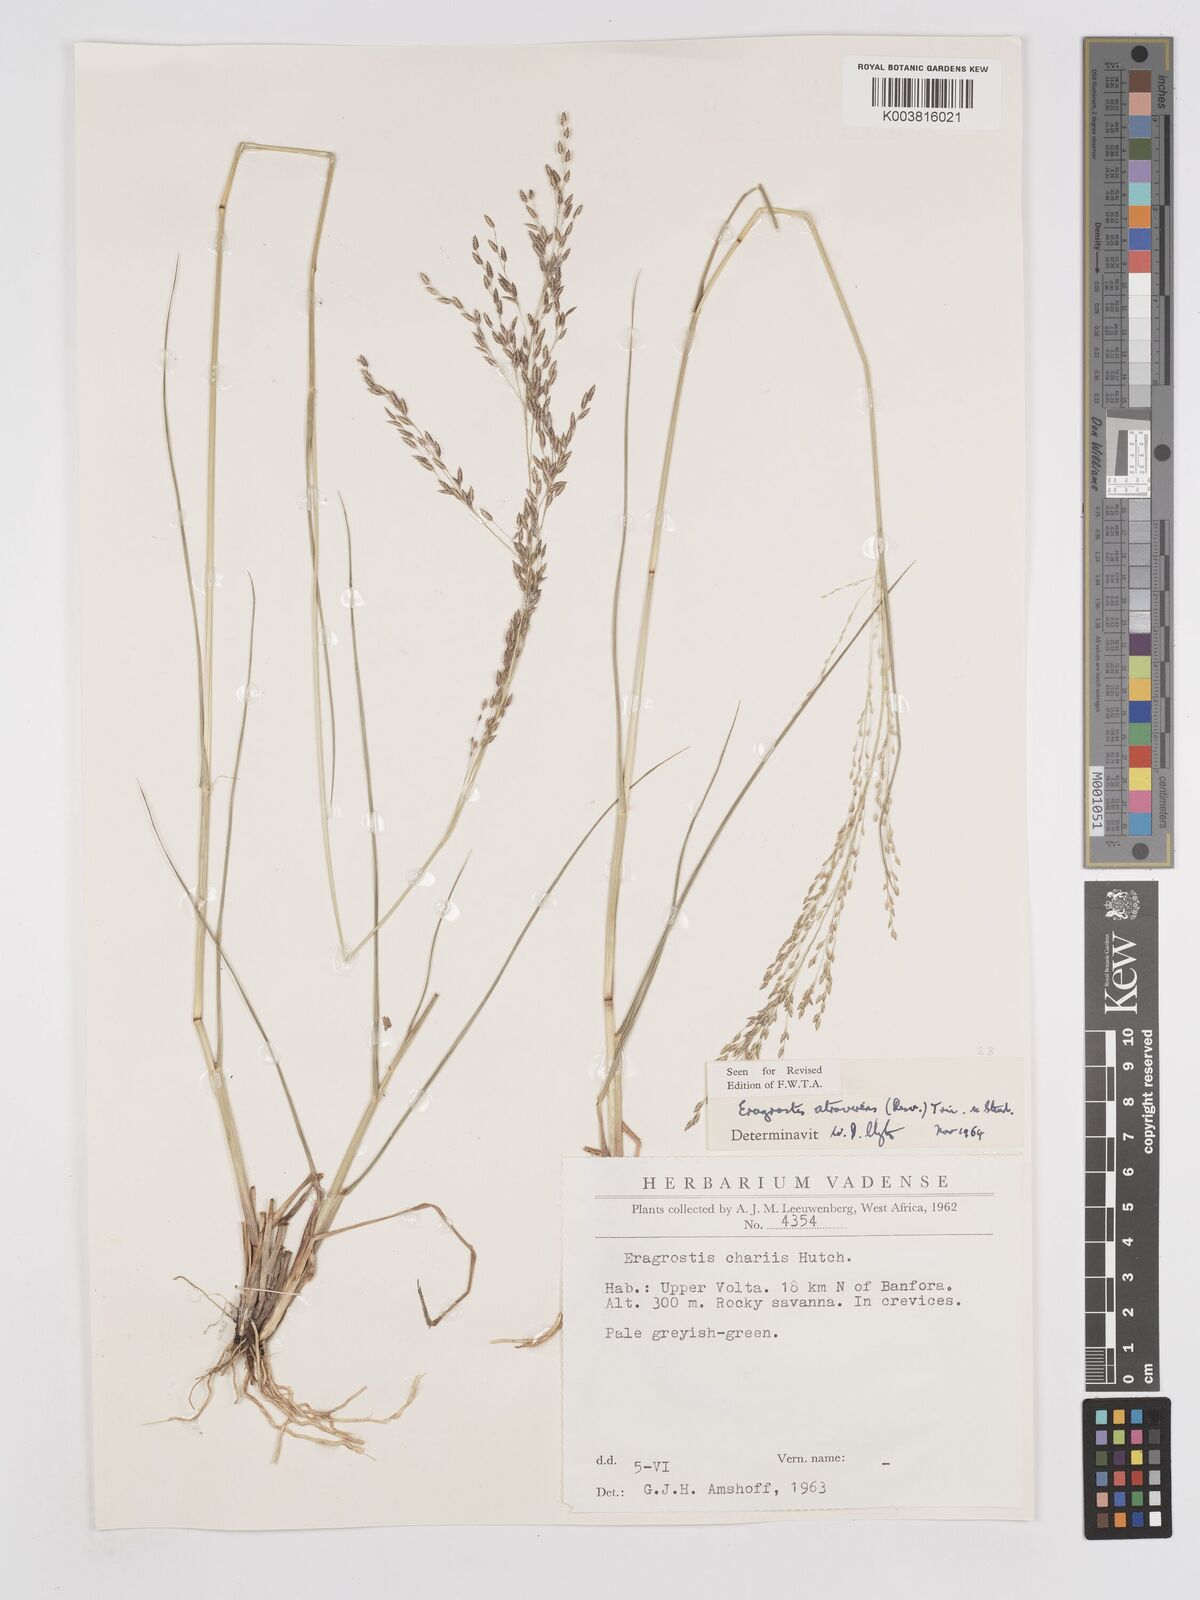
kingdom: Plantae
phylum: Tracheophyta
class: Liliopsida
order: Poales
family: Poaceae
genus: Eragrostis
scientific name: Eragrostis atrovirens
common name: Thalia lovegrass
